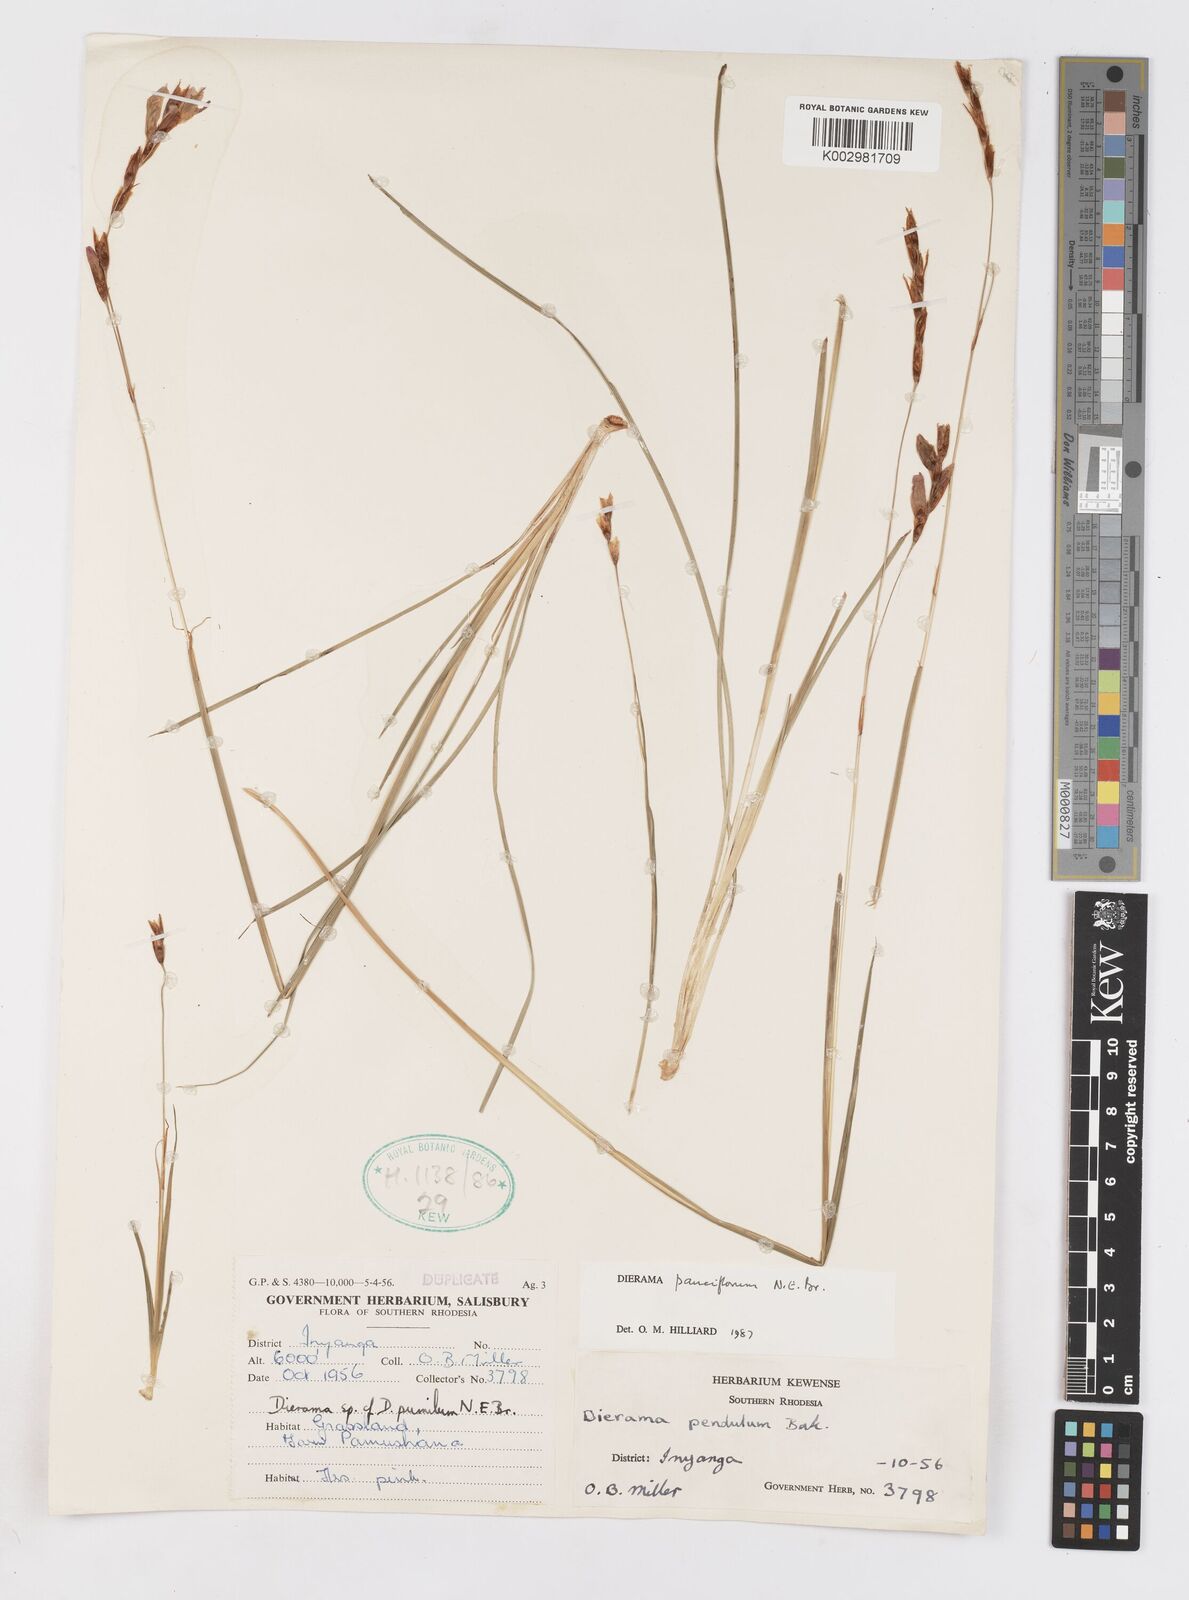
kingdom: Plantae
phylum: Tracheophyta
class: Liliopsida
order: Asparagales
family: Iridaceae
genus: Dierama
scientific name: Dierama pauciflorum
